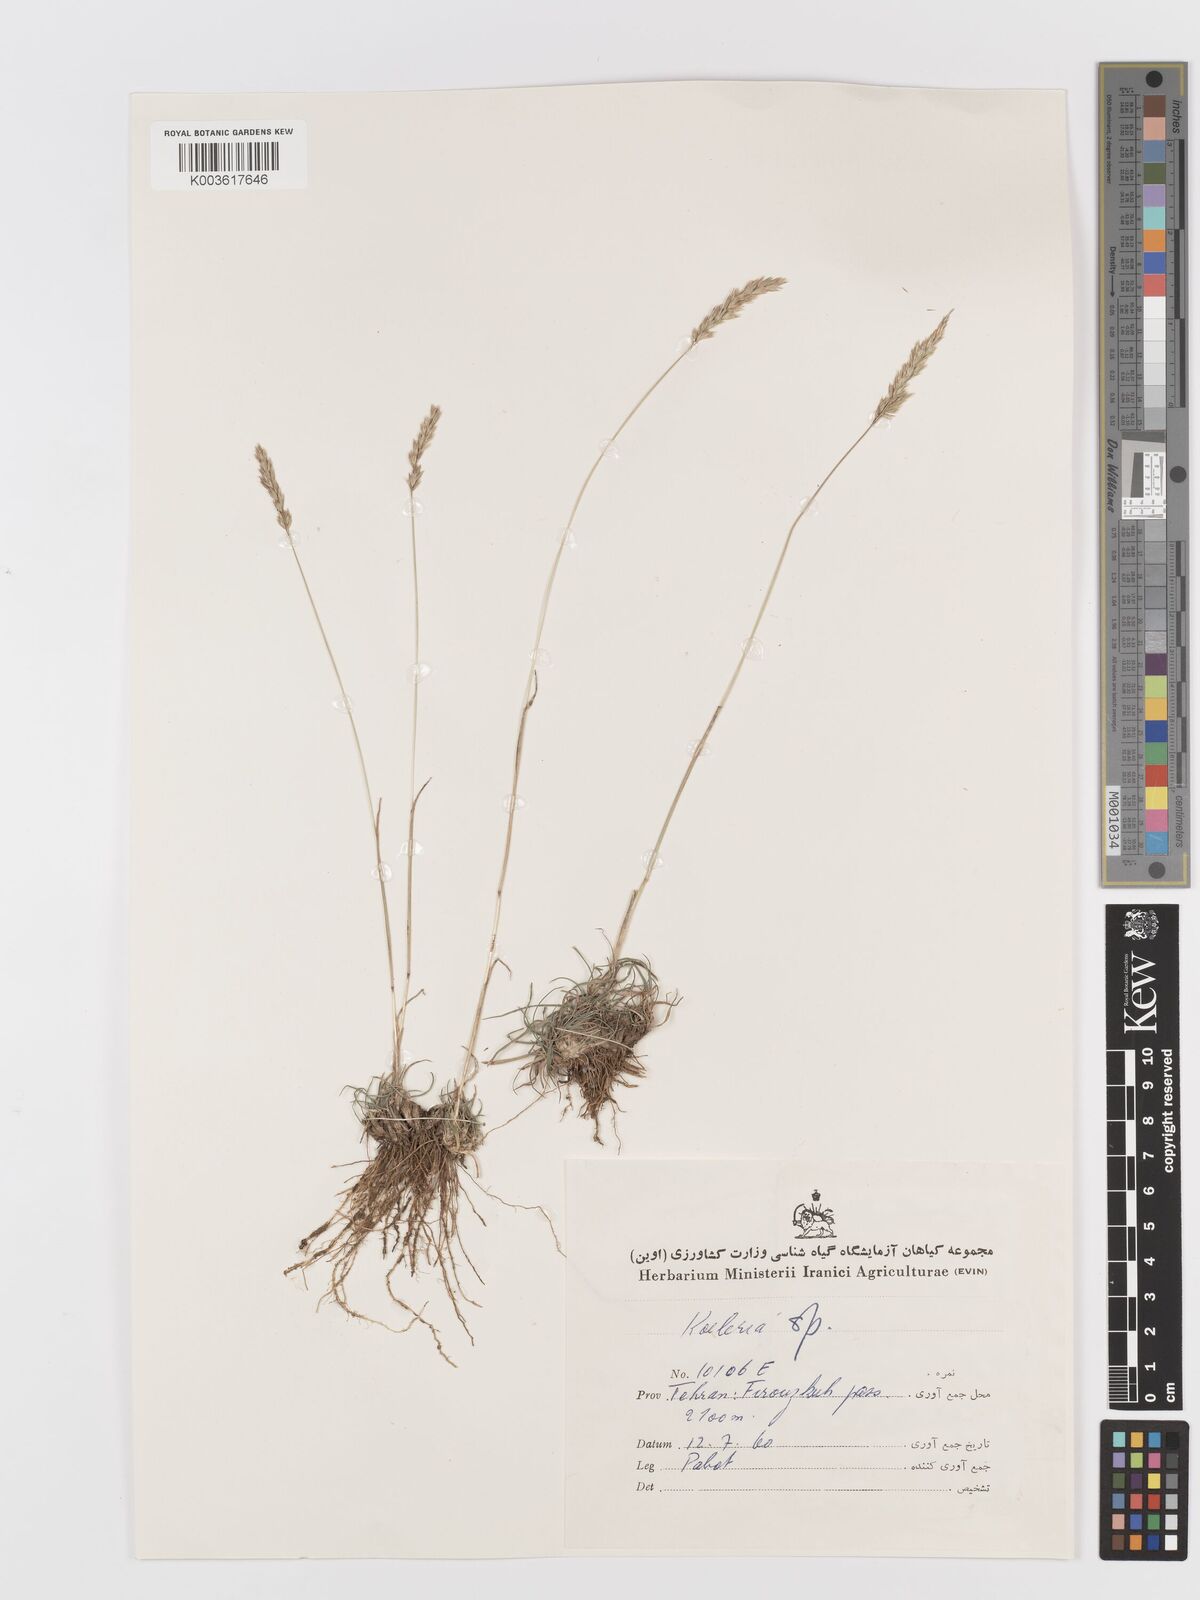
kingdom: Plantae
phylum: Tracheophyta
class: Liliopsida
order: Poales
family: Poaceae
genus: Koeleria
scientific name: Koeleria
